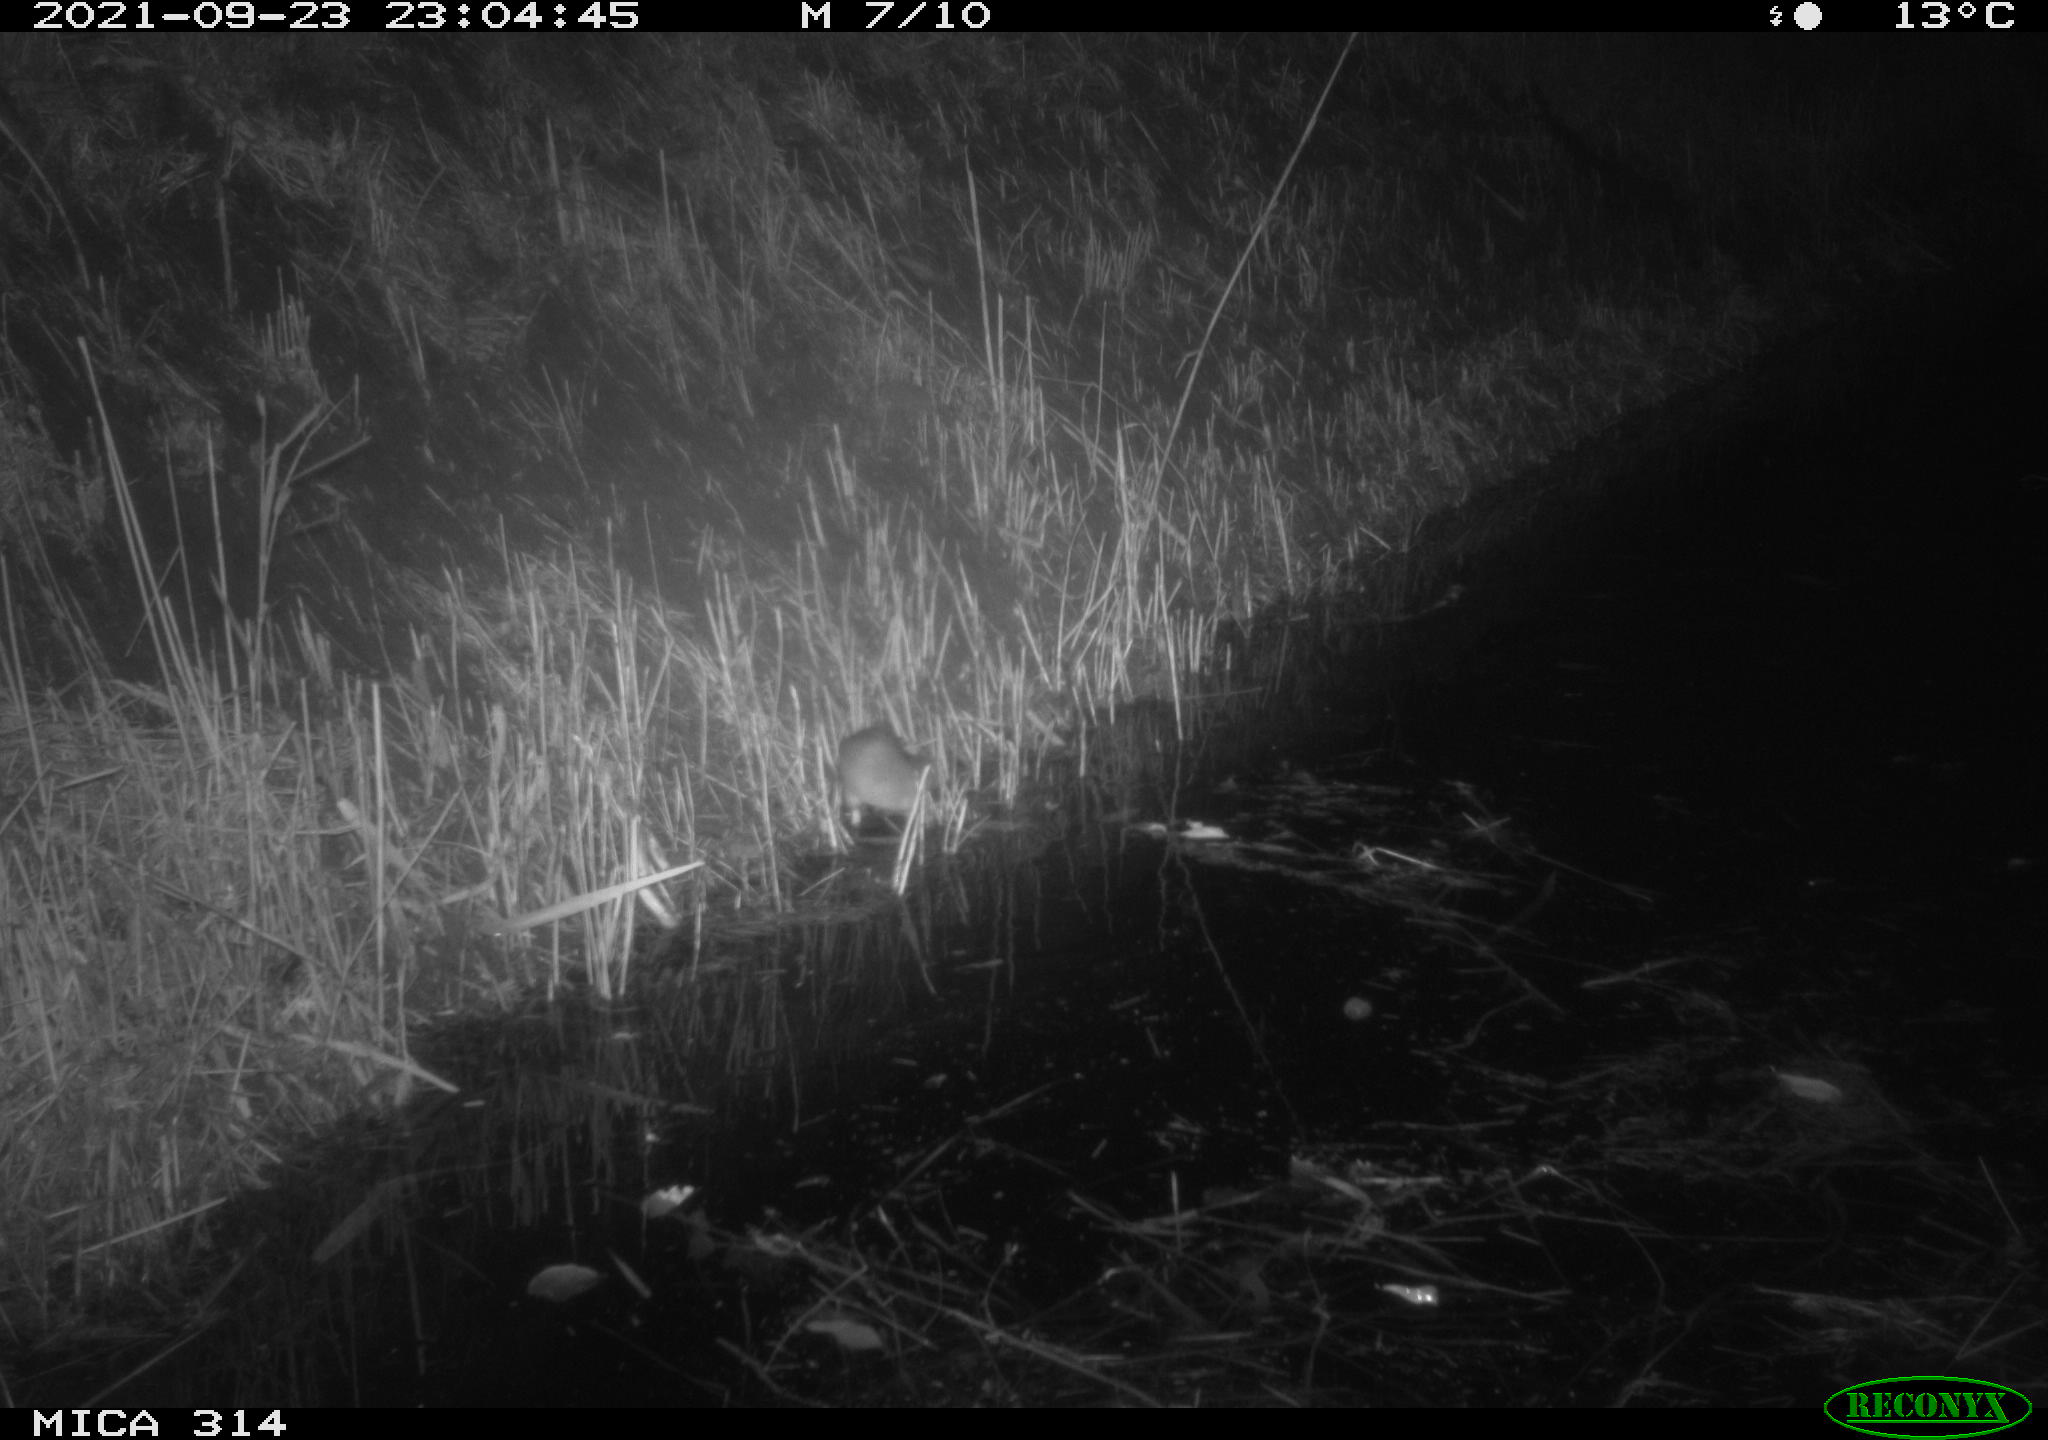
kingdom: Animalia
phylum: Chordata
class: Mammalia
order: Rodentia
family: Muridae
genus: Rattus
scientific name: Rattus norvegicus
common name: Brown rat
